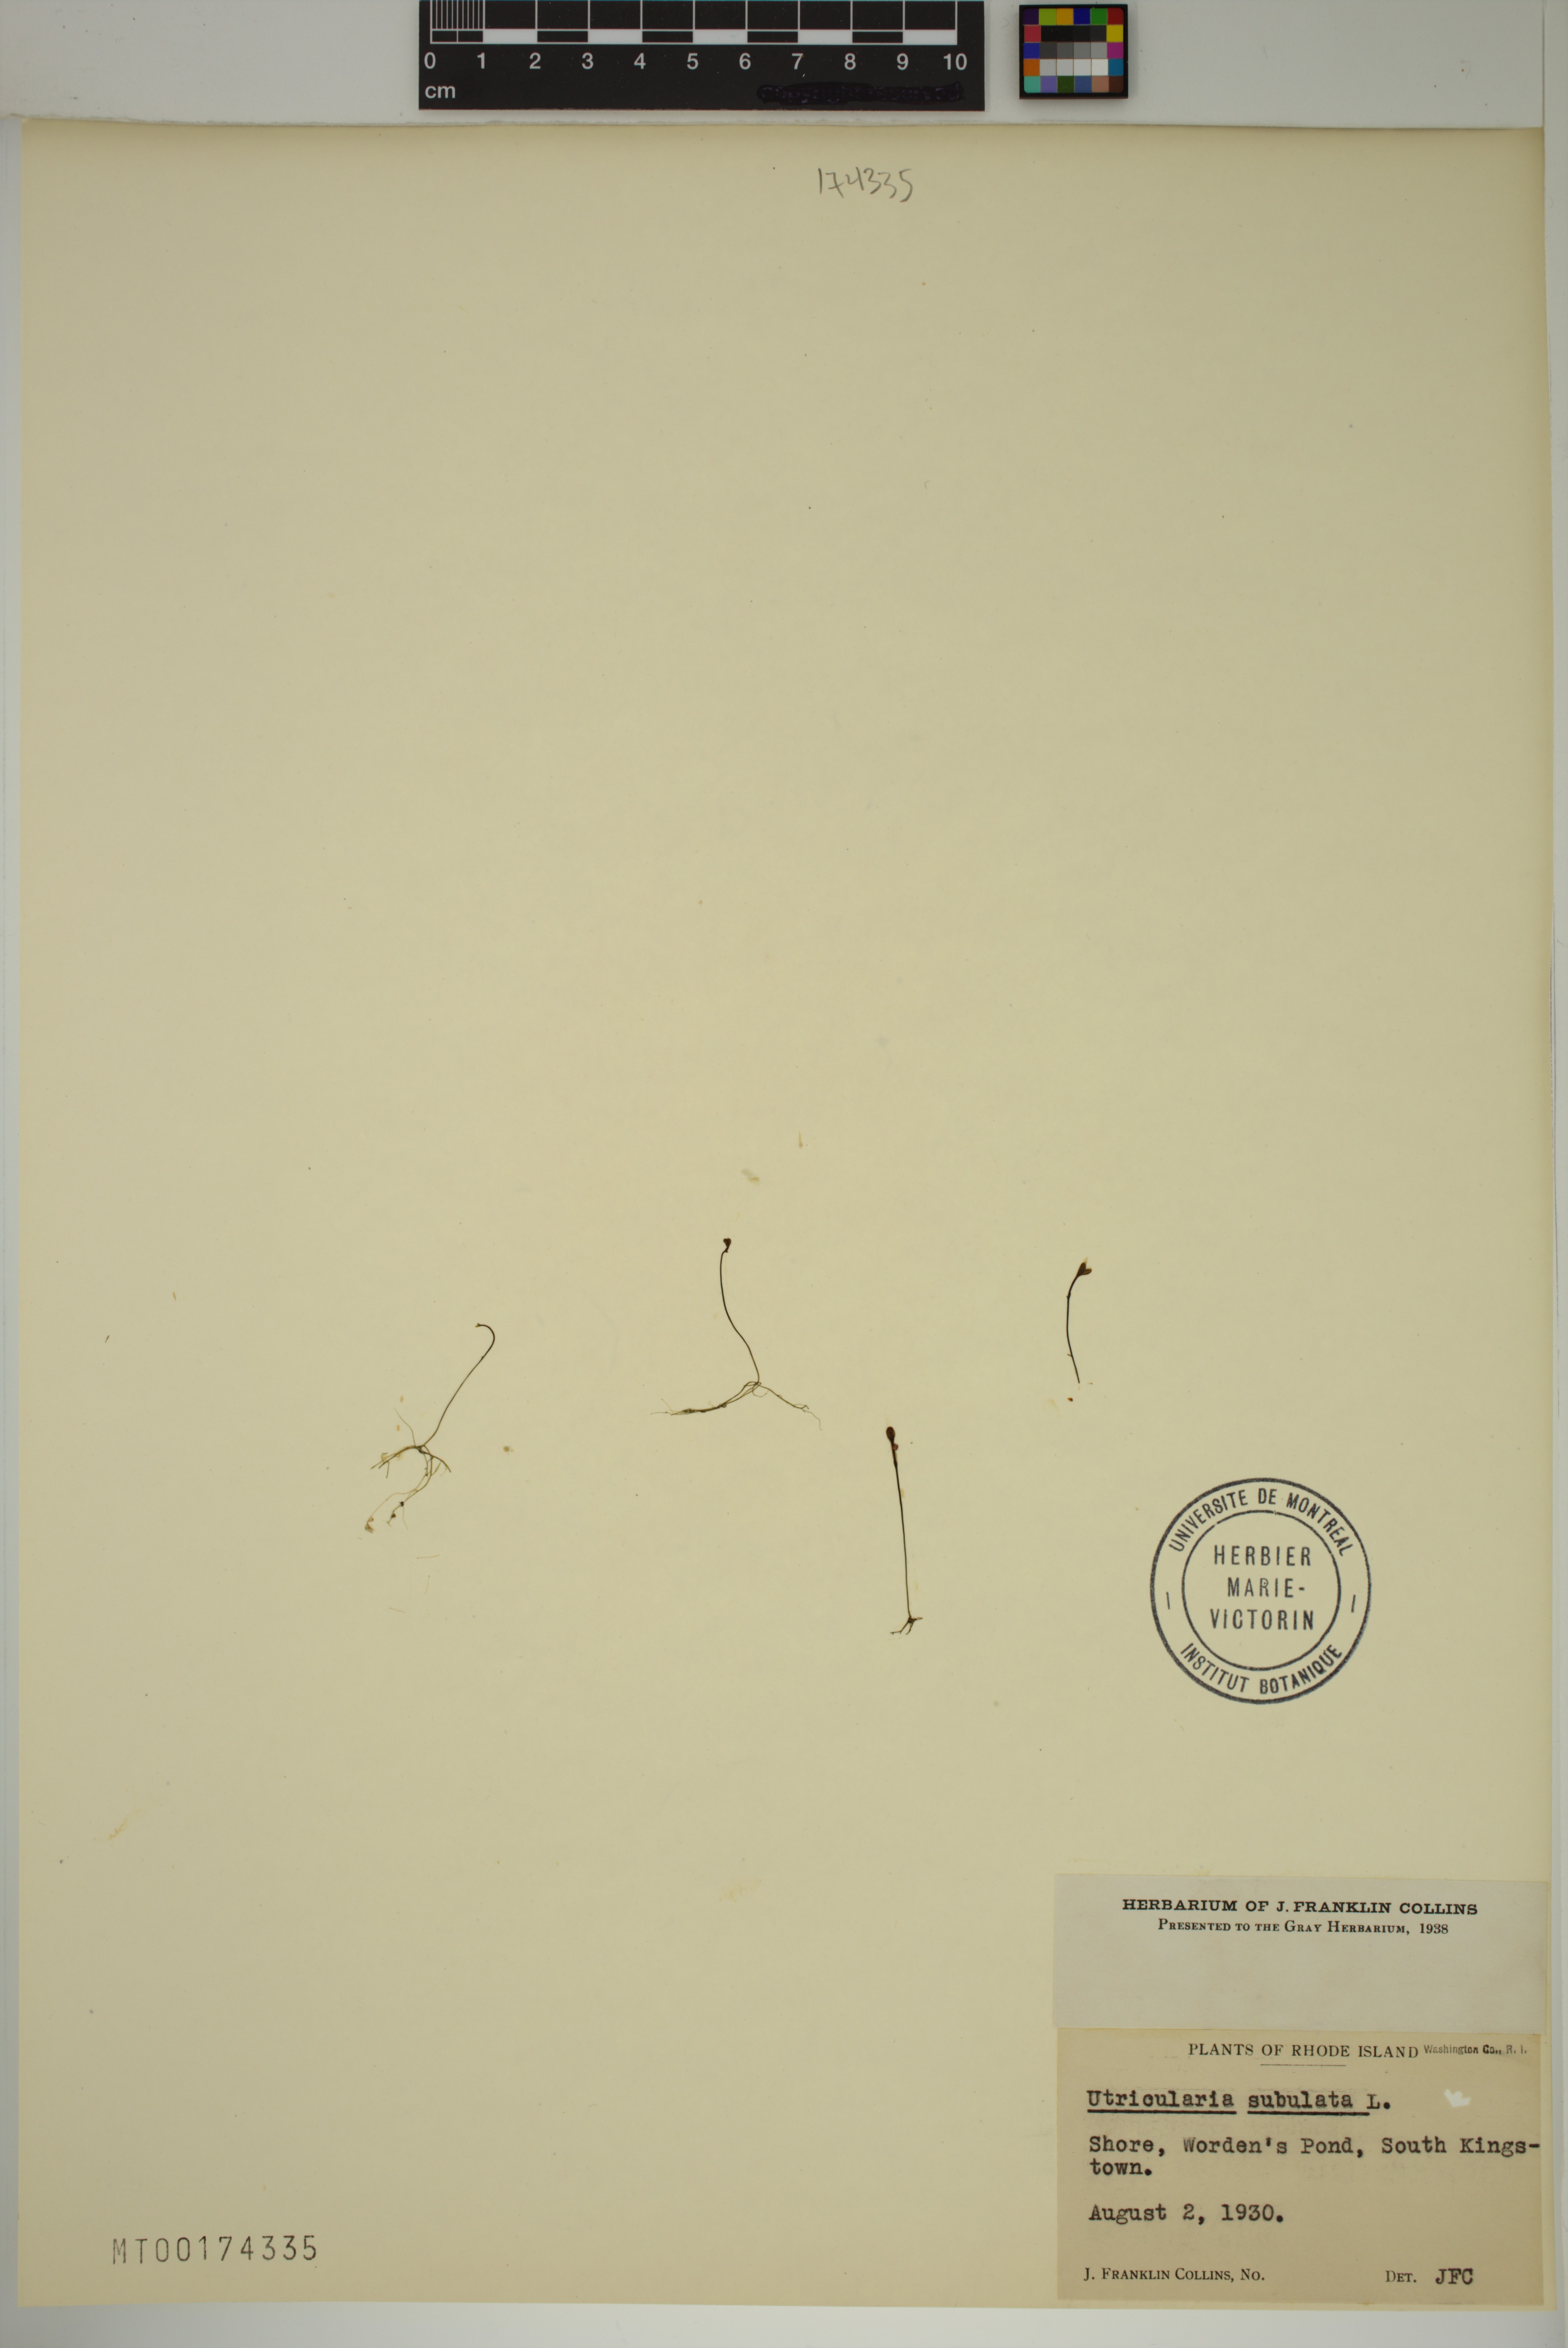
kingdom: Plantae
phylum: Tracheophyta
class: Magnoliopsida
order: Lamiales
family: Lentibulariaceae
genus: Utricularia
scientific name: Utricularia subulata
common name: Tiny bladderwort
